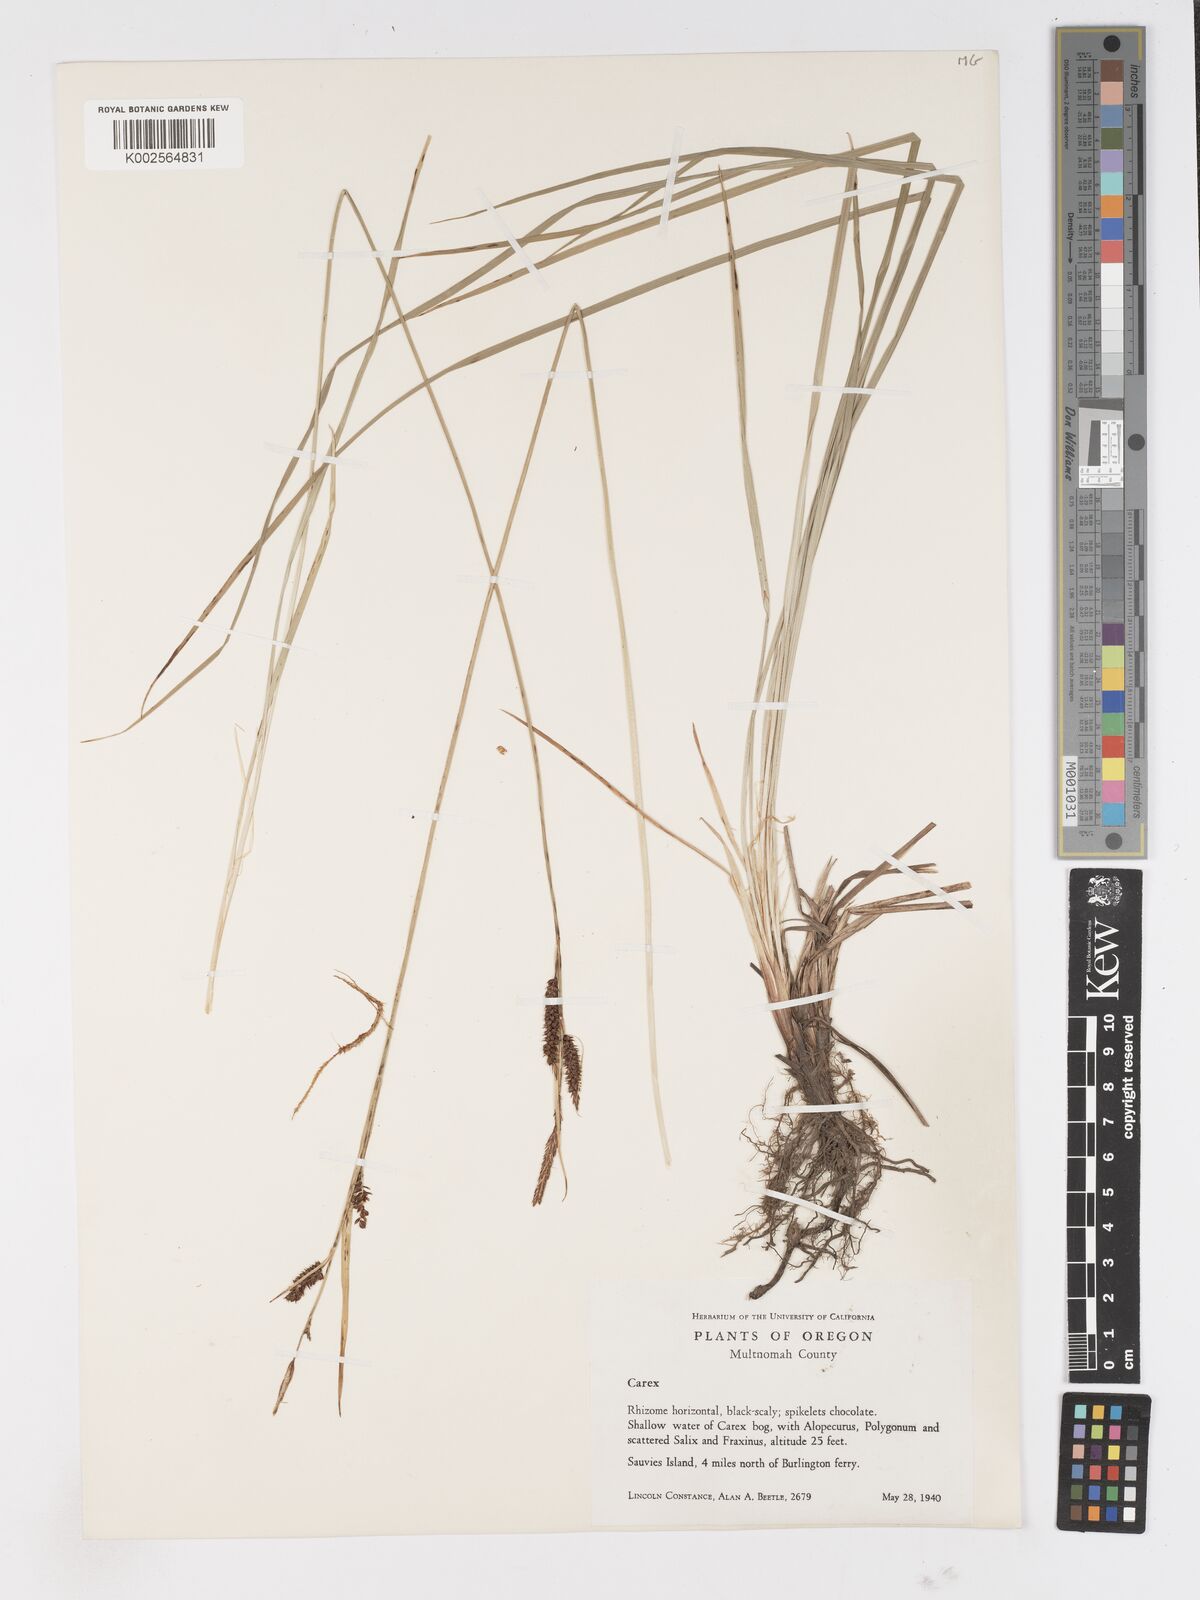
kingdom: Plantae
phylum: Tracheophyta
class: Liliopsida
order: Poales
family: Cyperaceae
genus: Carex
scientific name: Carex
